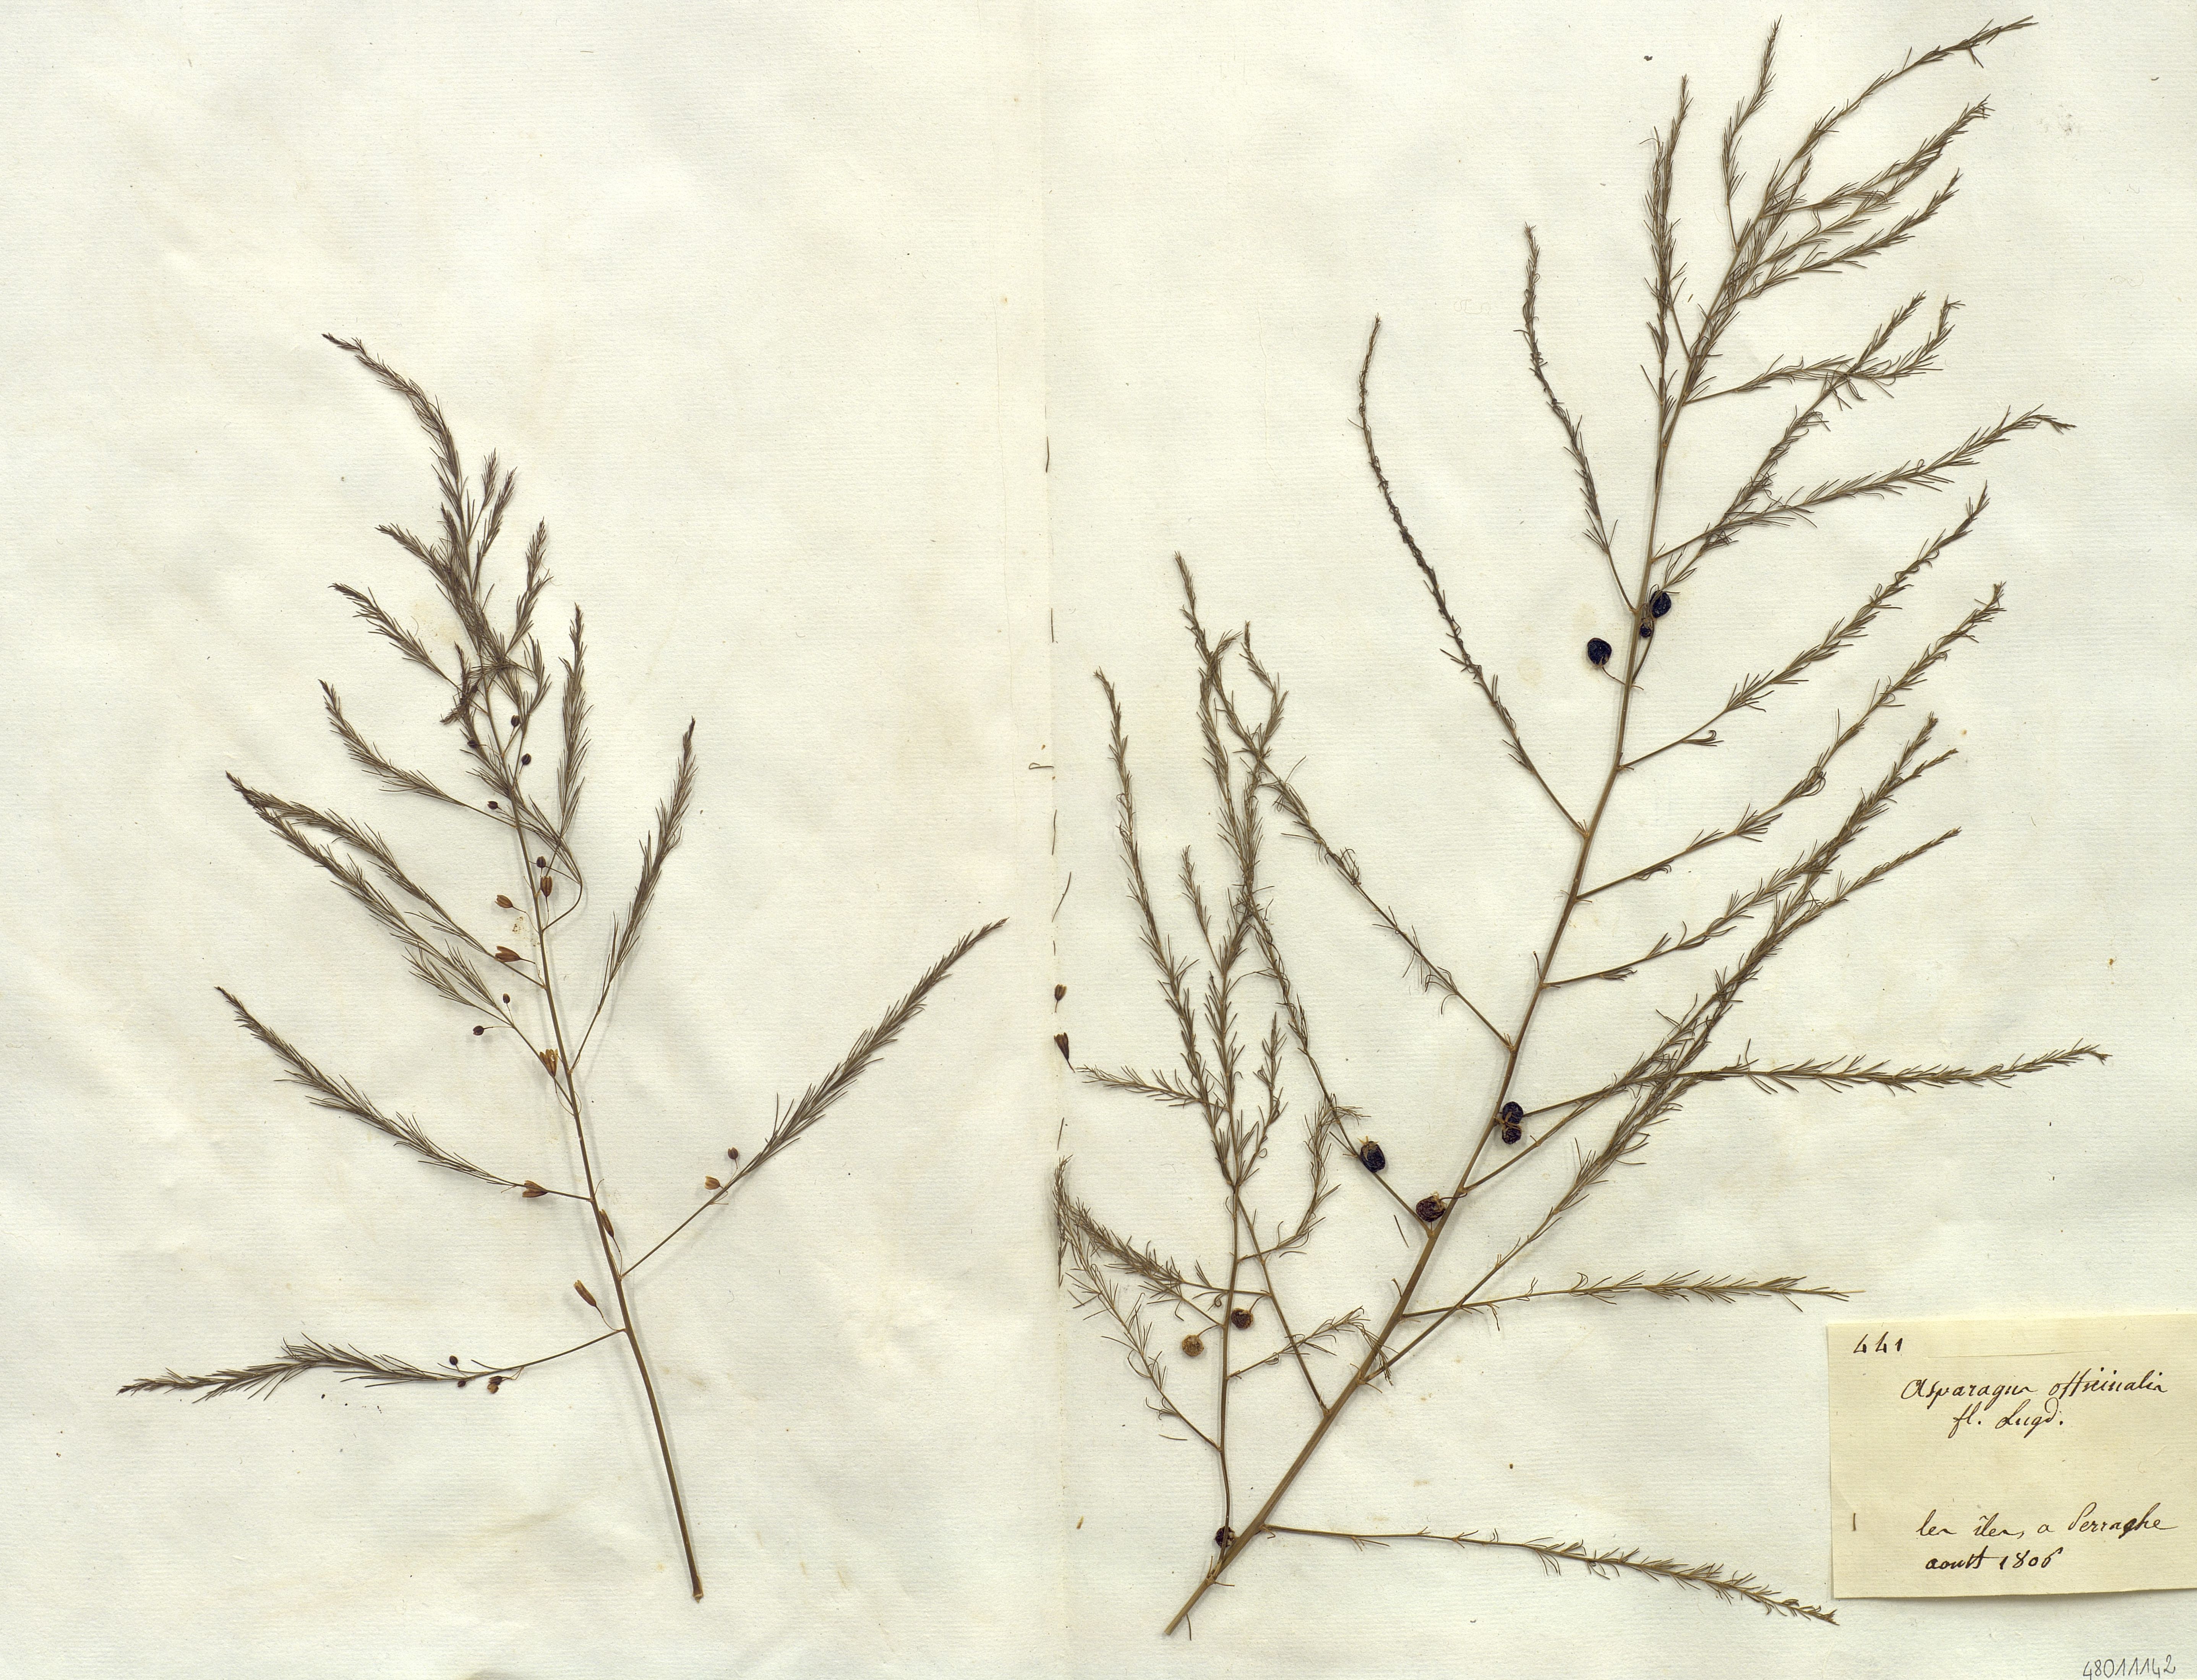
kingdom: Plantae
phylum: Tracheophyta
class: Liliopsida
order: Liliales
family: Liliaceae
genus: Asparagus
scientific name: Asparagus
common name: Asparagus
